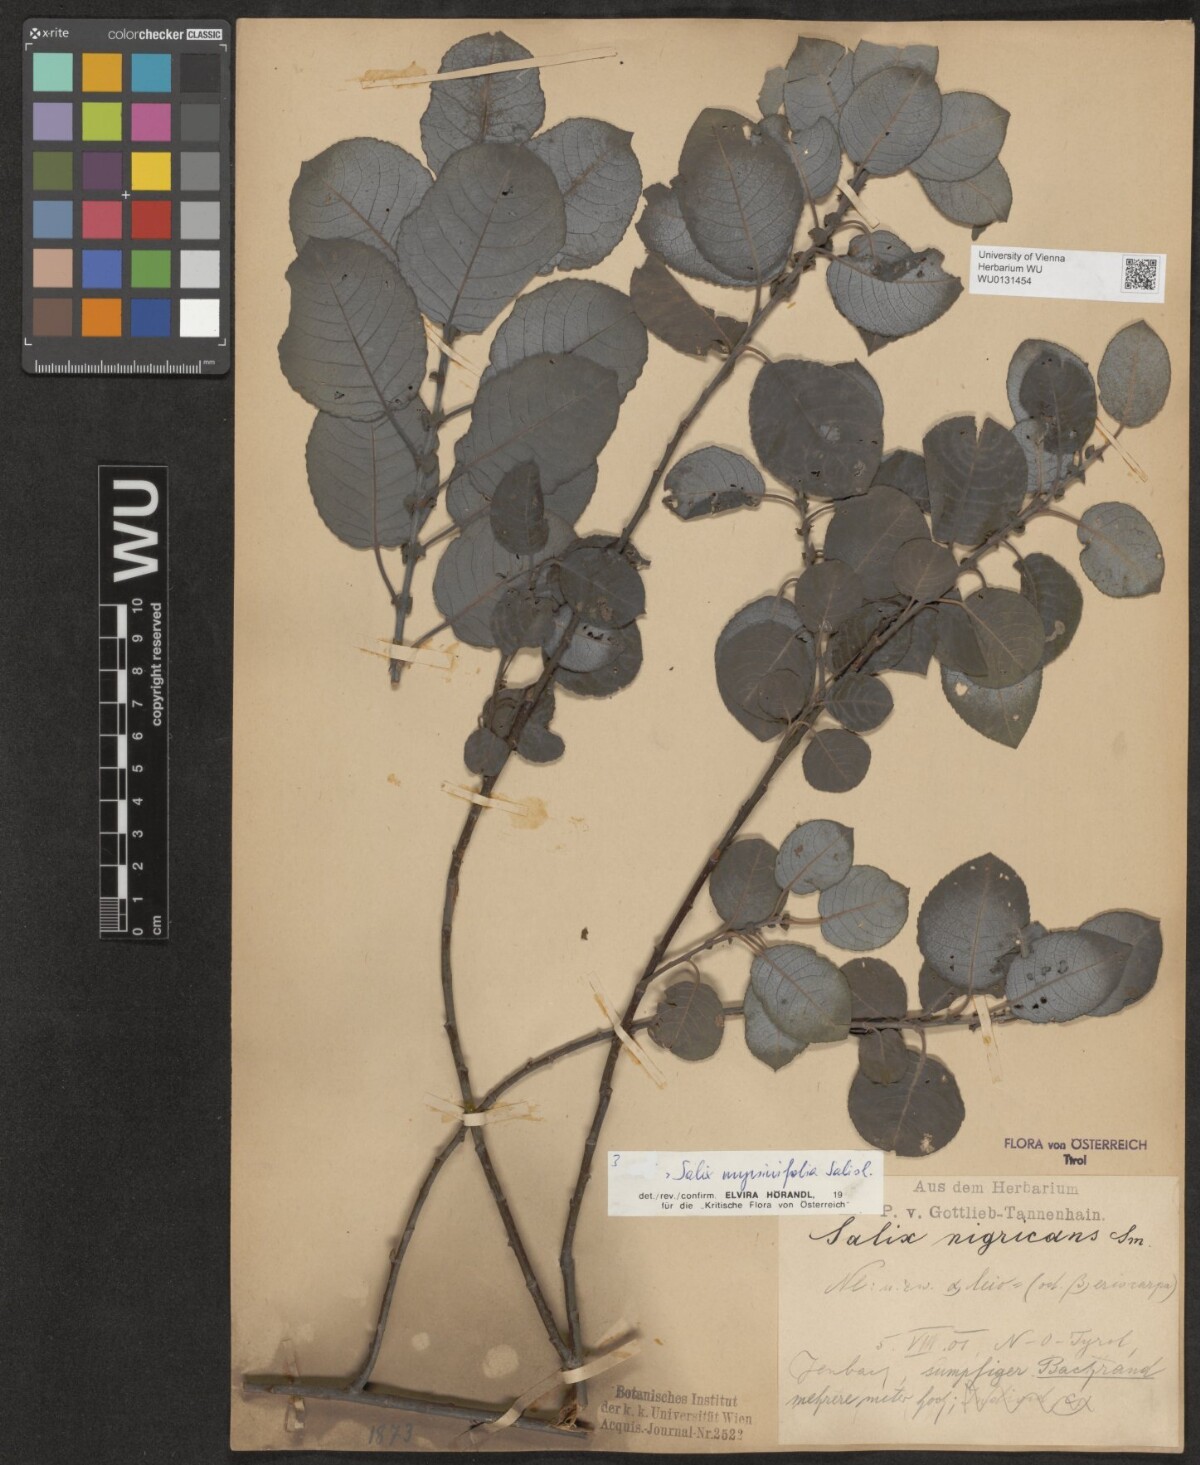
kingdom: Plantae
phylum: Tracheophyta
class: Magnoliopsida
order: Malpighiales
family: Salicaceae
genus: Salix
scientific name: Salix myrsinifolia
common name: Dark-leaved willow
